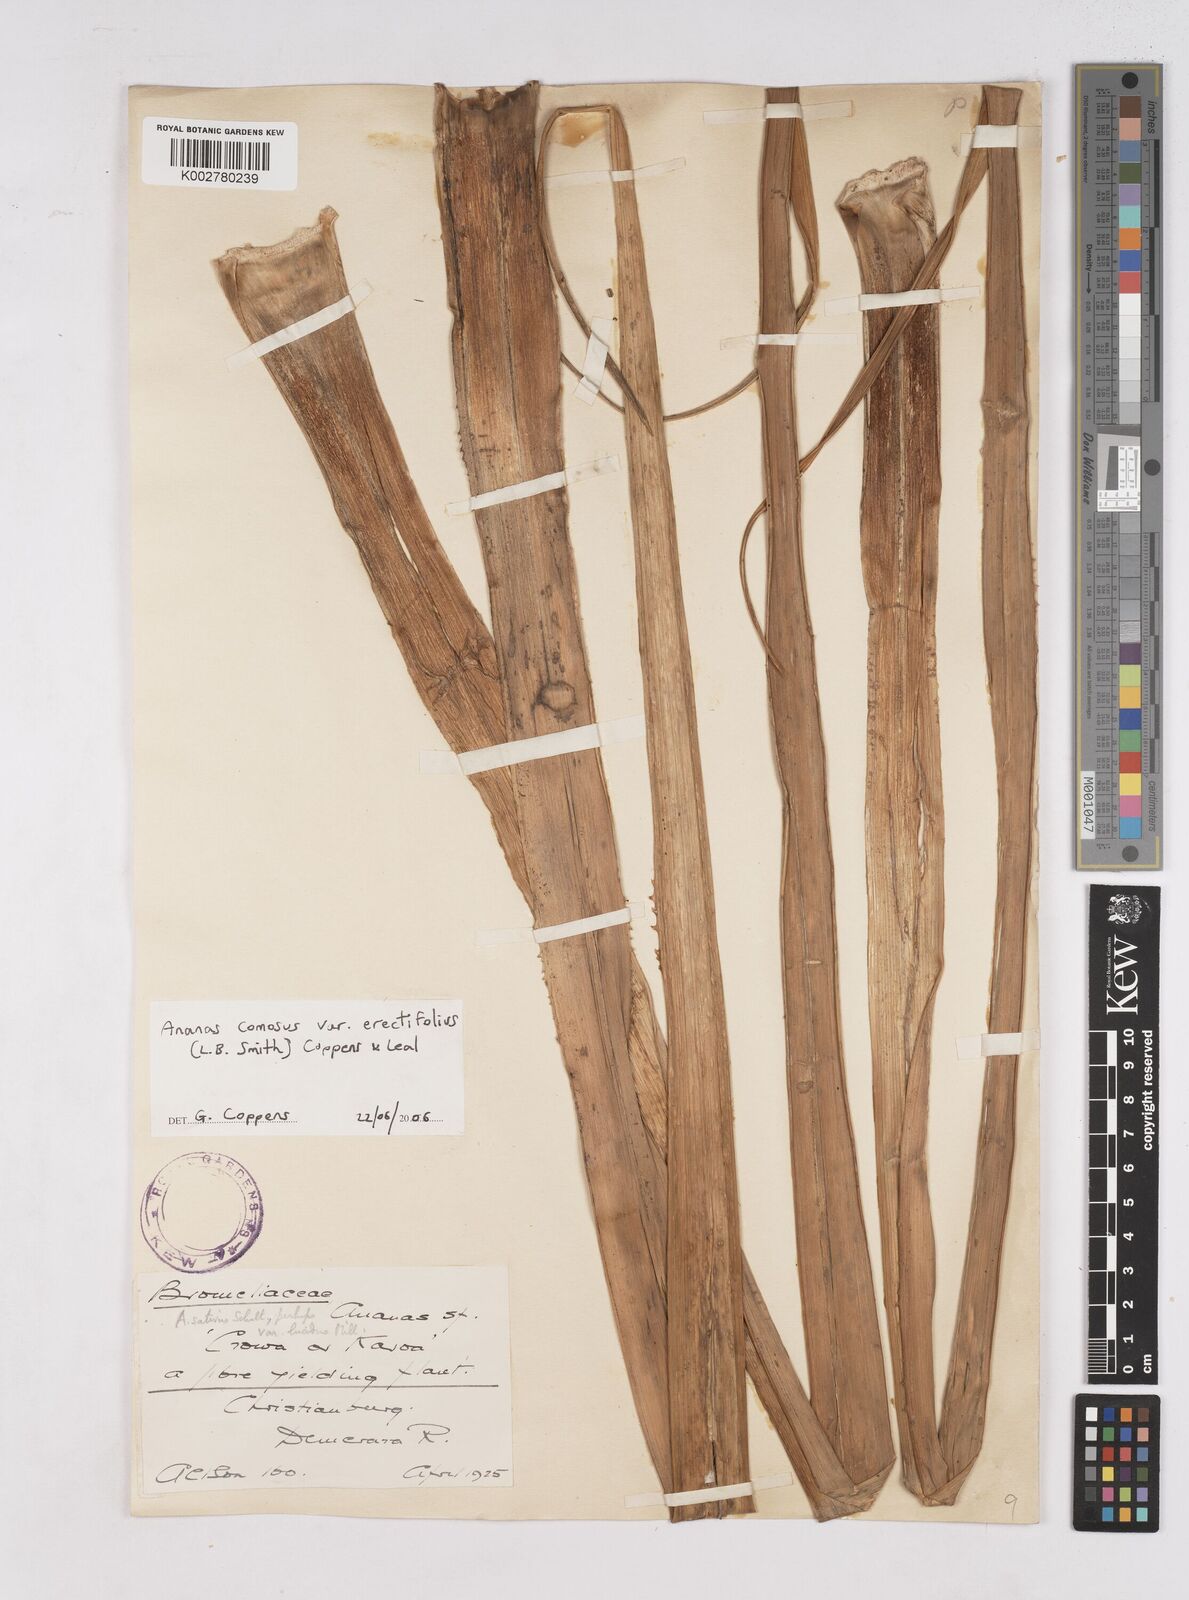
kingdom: Plantae
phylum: Tracheophyta
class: Liliopsida
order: Poales
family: Bromeliaceae
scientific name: Bromeliaceae
